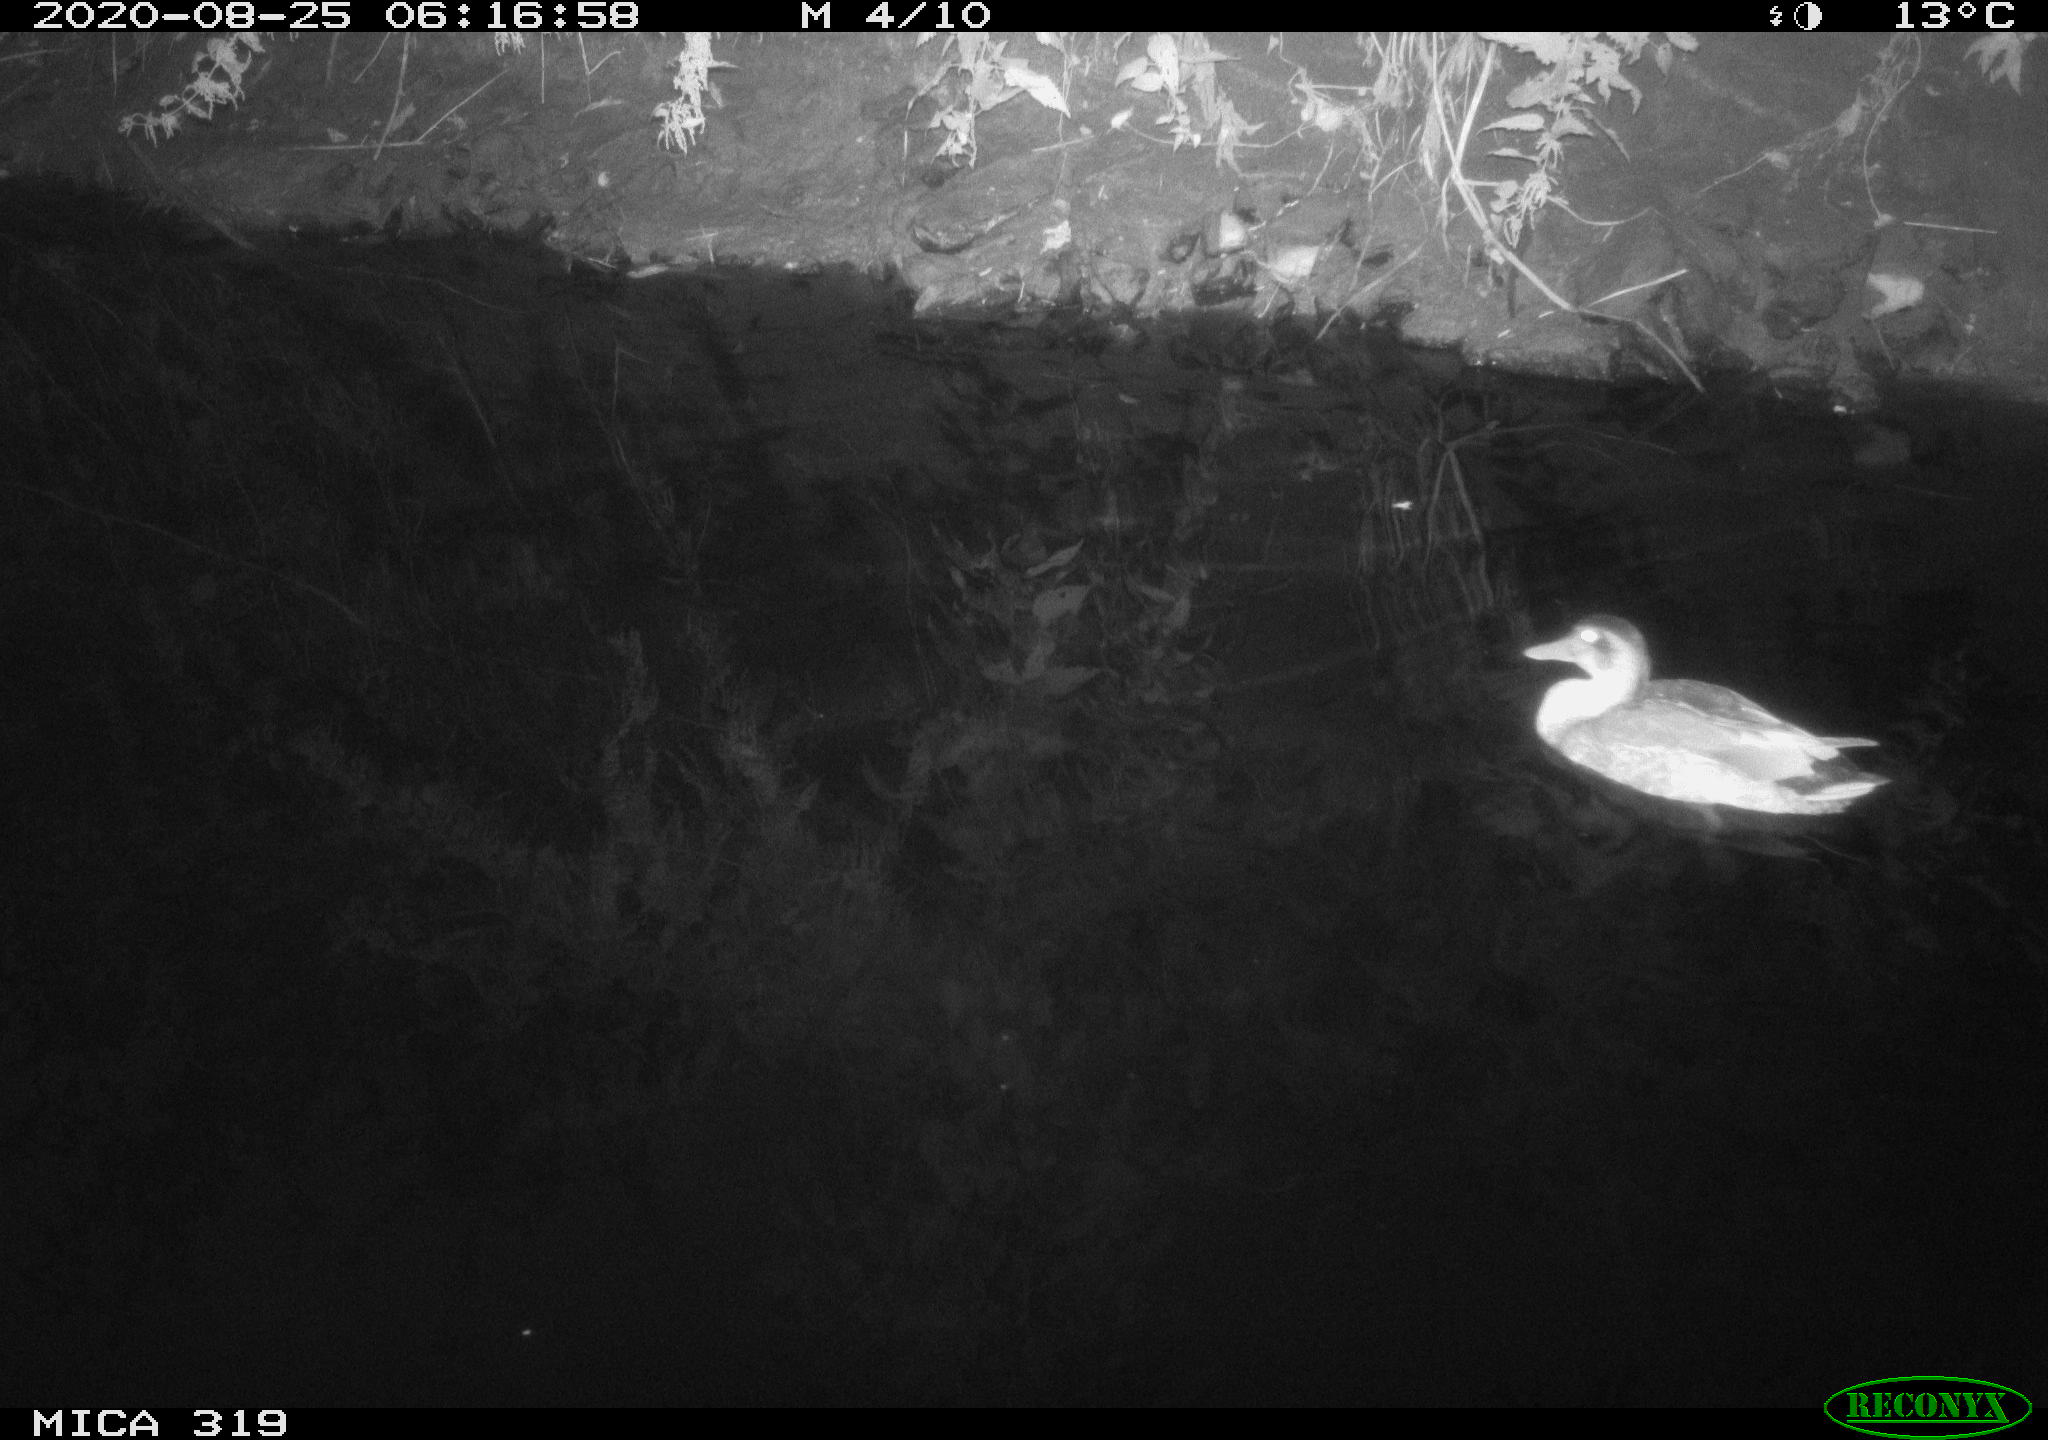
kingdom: Animalia
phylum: Chordata
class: Aves
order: Anseriformes
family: Anatidae
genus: Anas
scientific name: Anas platyrhynchos
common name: Mallard
